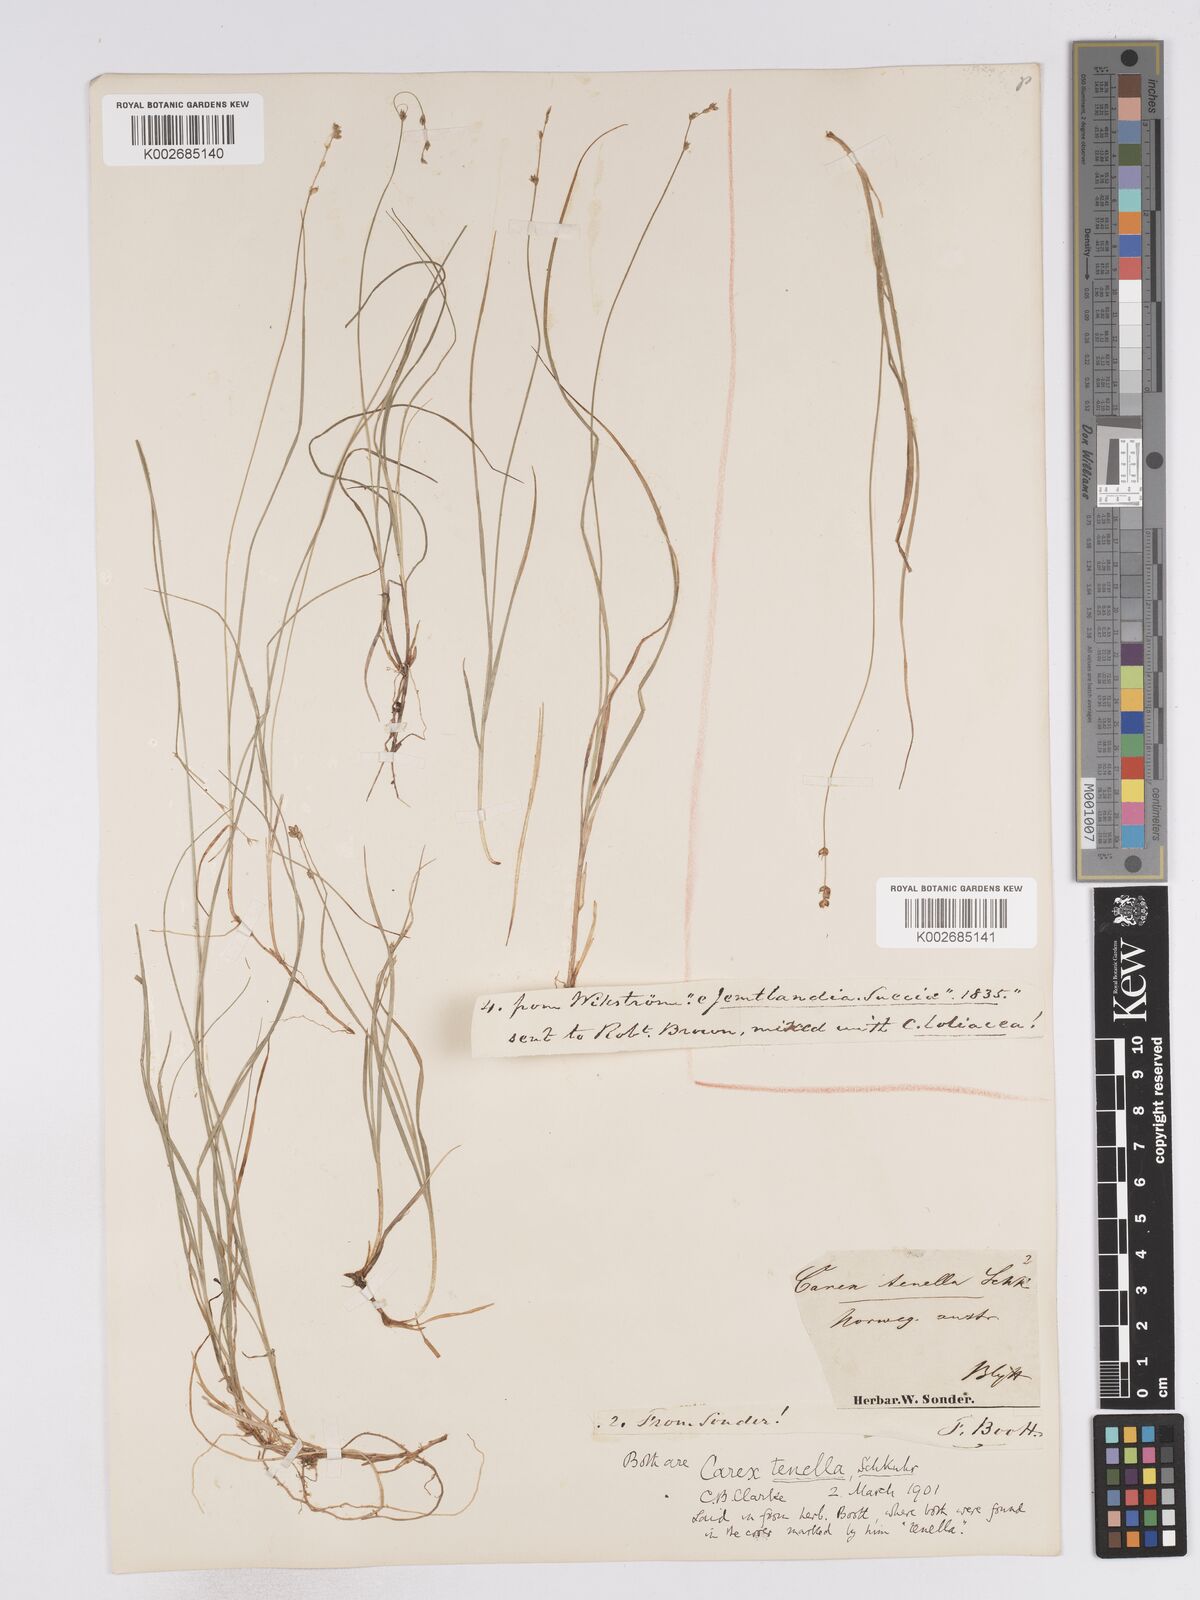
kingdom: Plantae
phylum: Tracheophyta
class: Liliopsida
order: Poales
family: Cyperaceae
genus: Carex
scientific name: Carex disperma
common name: Short-leaved sedge
